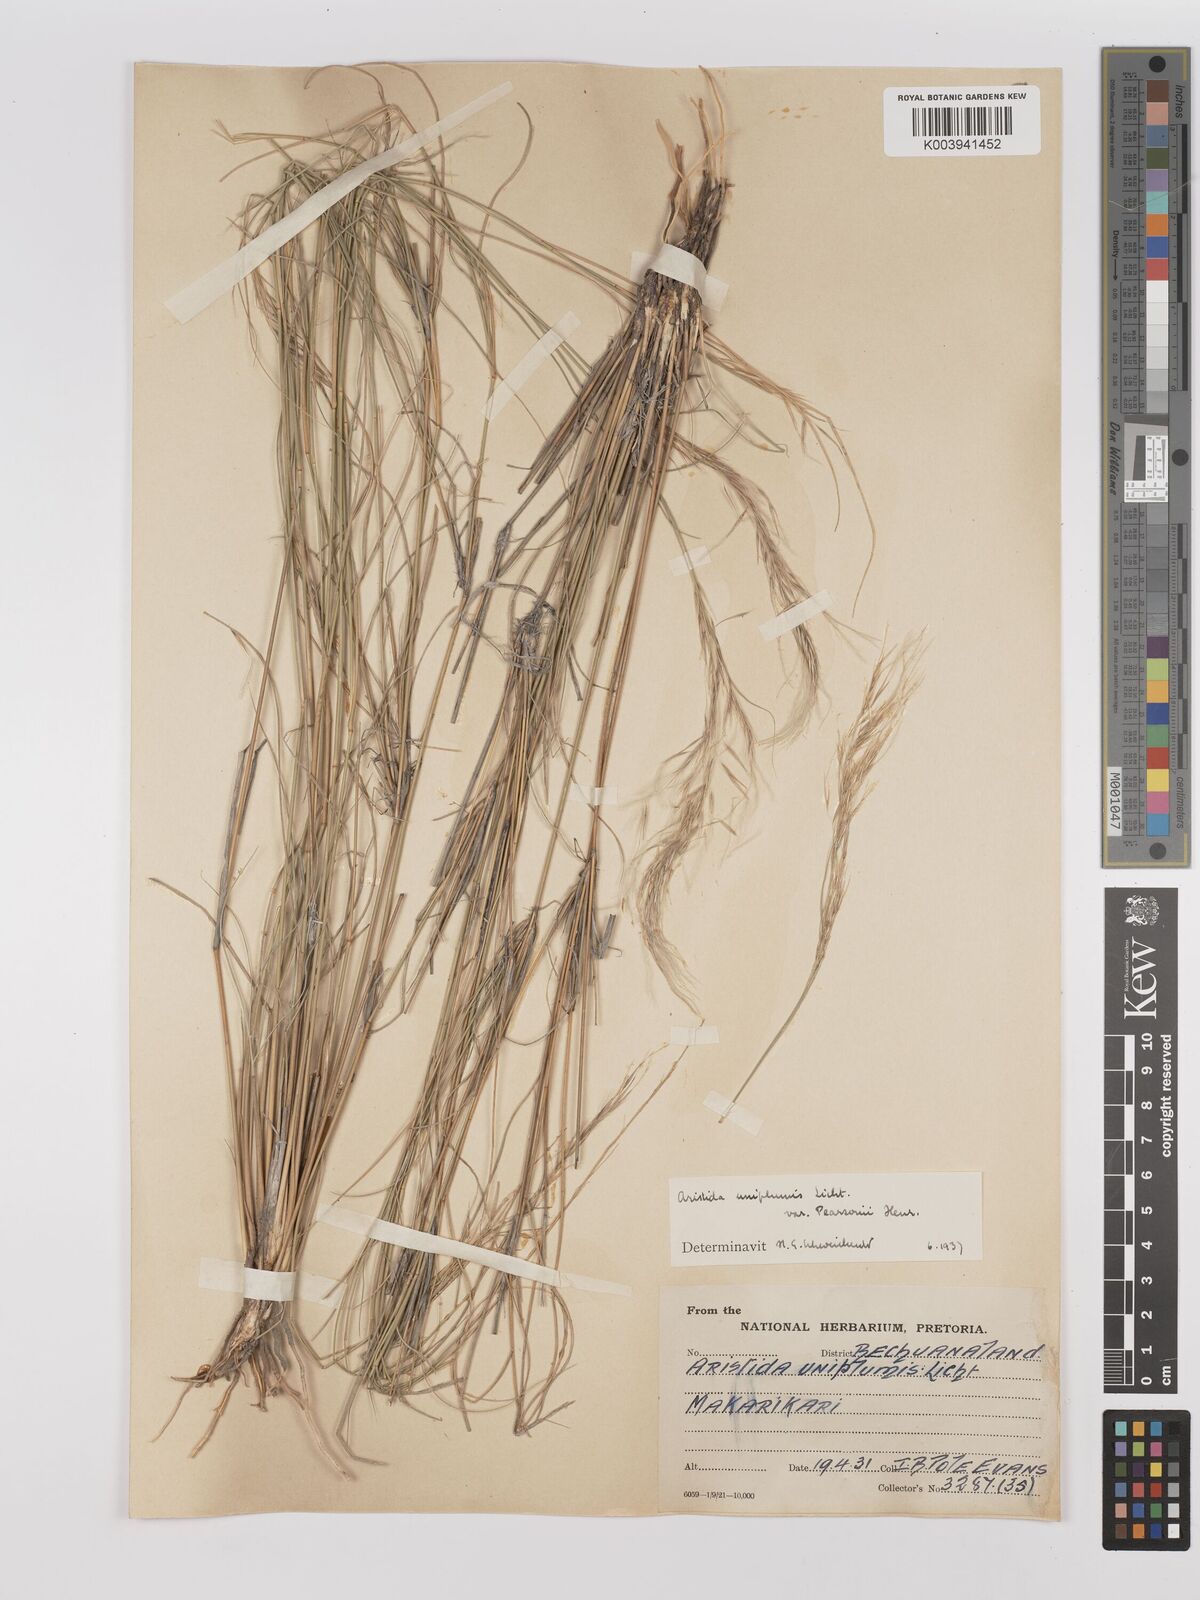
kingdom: Plantae
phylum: Tracheophyta
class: Liliopsida
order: Poales
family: Poaceae
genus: Stipagrostis
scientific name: Stipagrostis uniplumis
